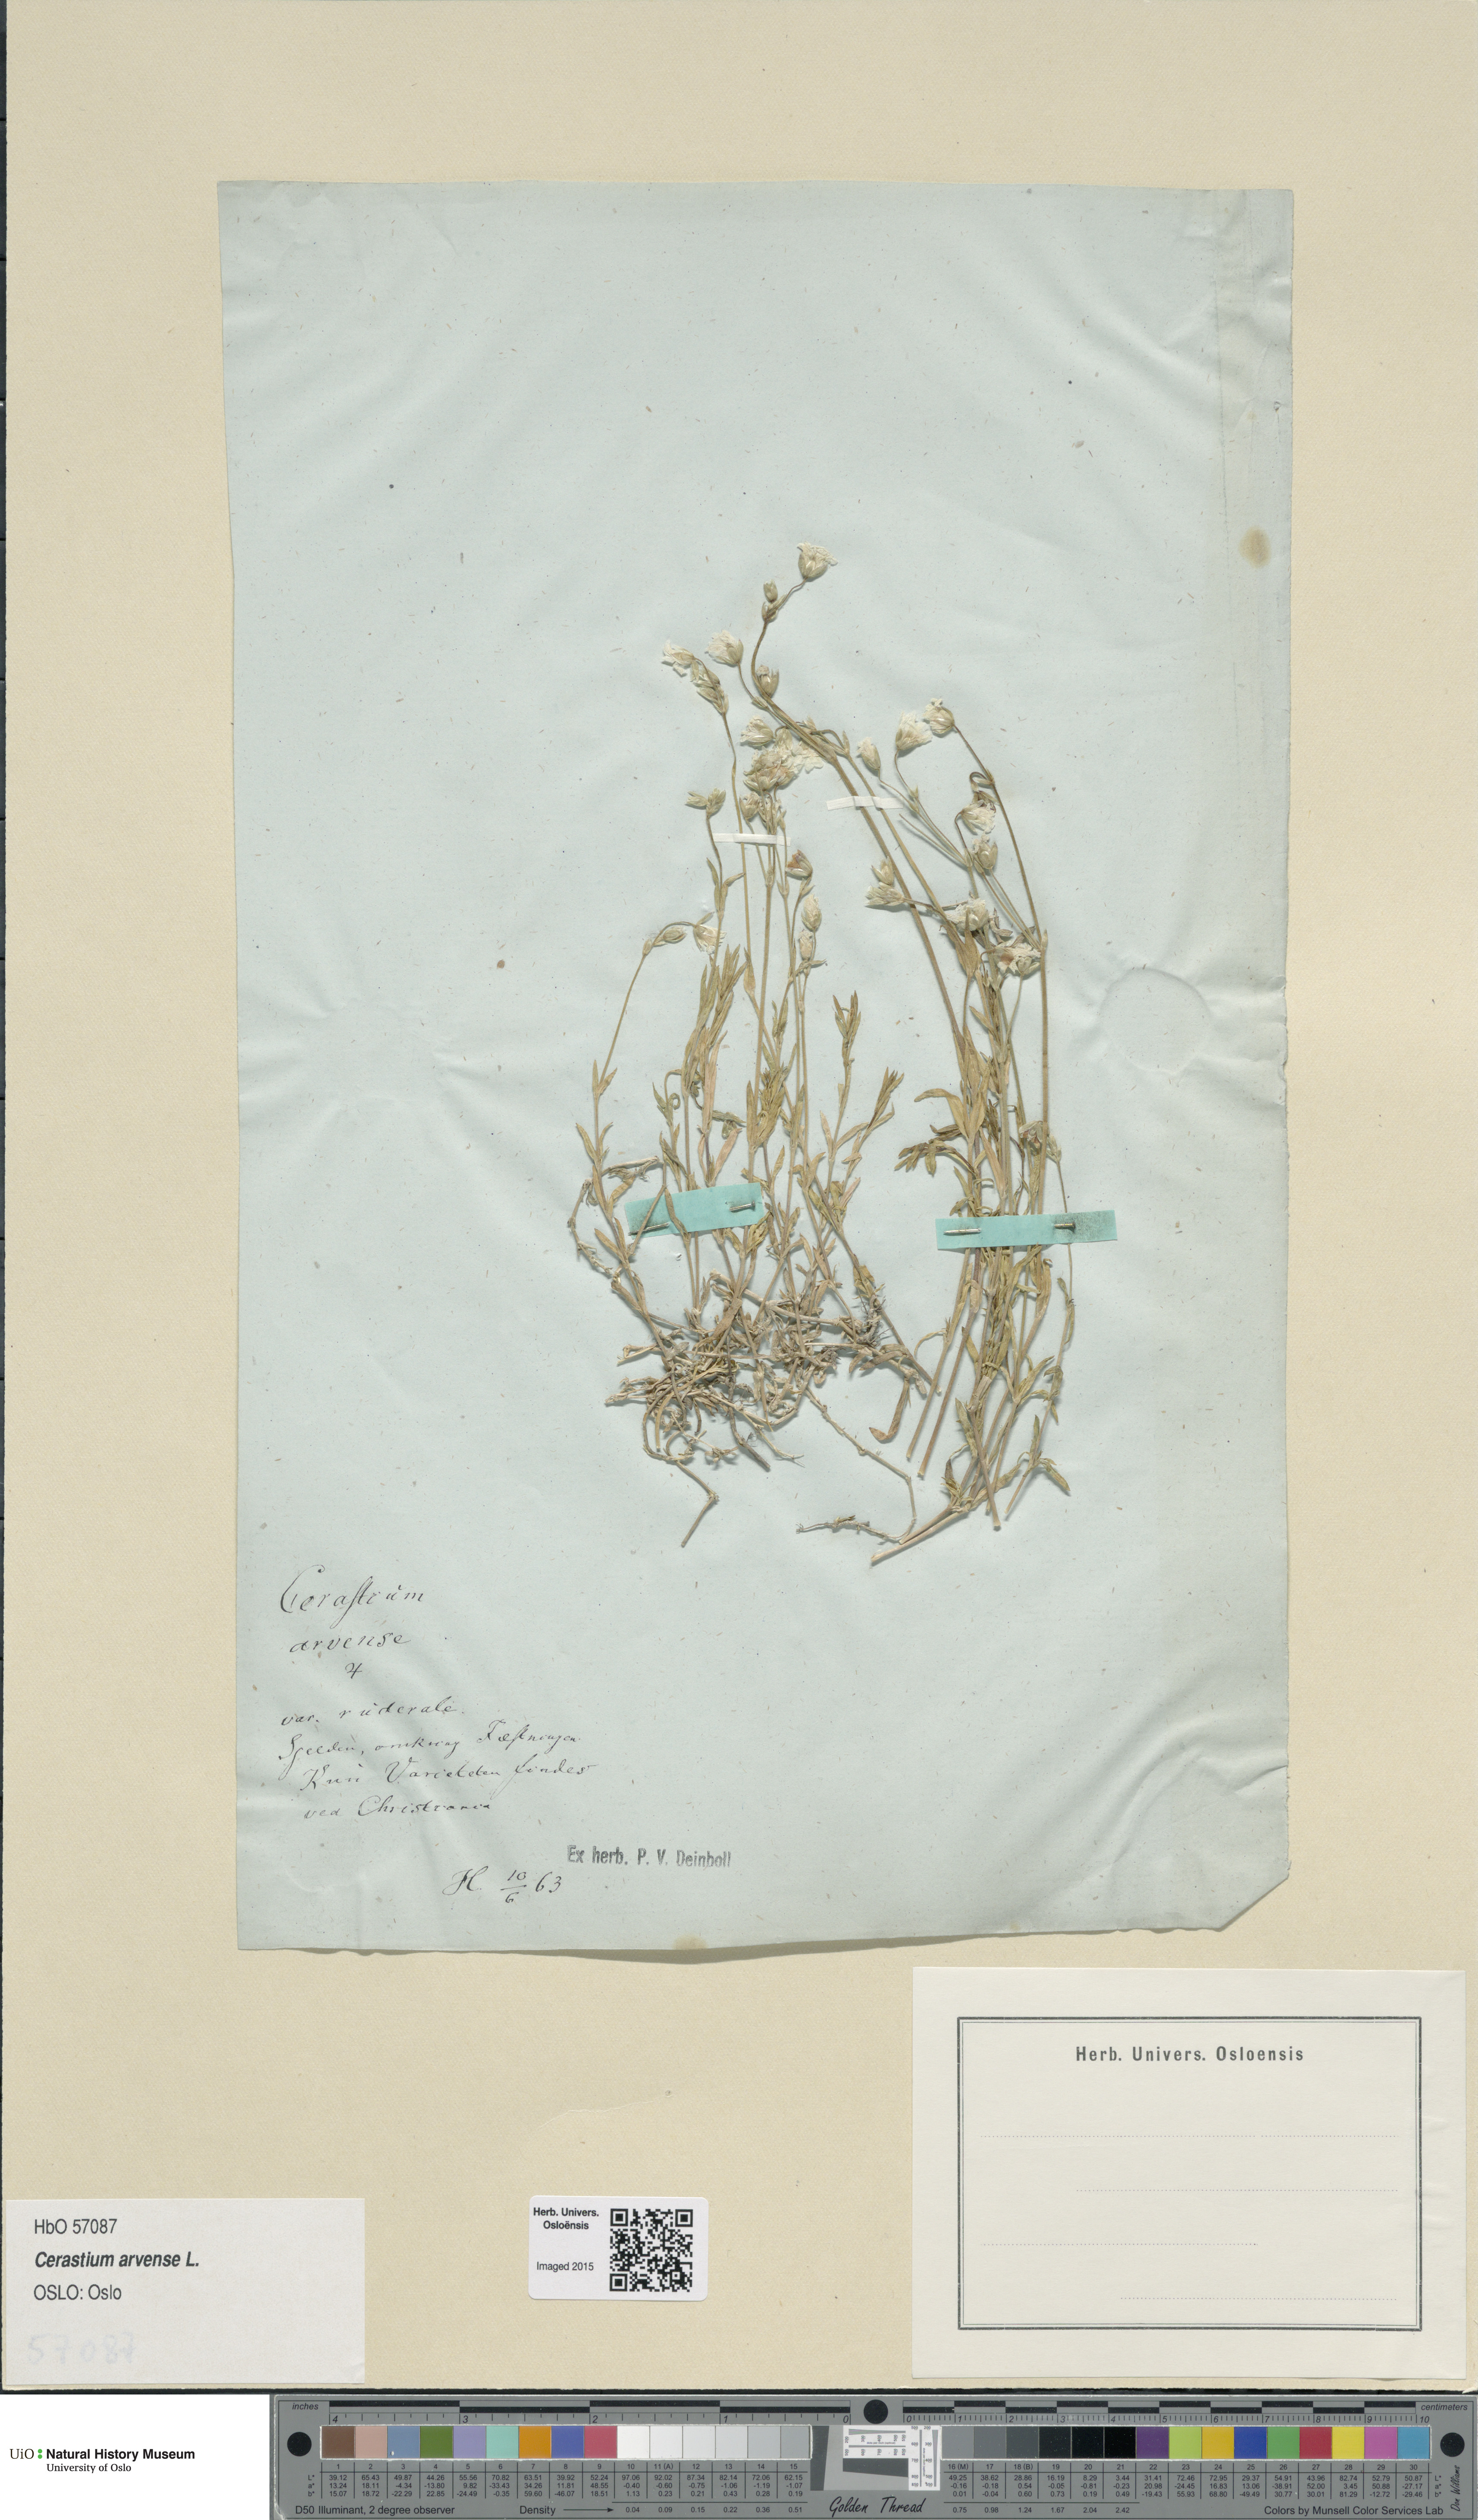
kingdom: Plantae
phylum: Tracheophyta
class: Magnoliopsida
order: Caryophyllales
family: Caryophyllaceae
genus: Cerastium
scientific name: Cerastium arvense
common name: Field mouse-ear
